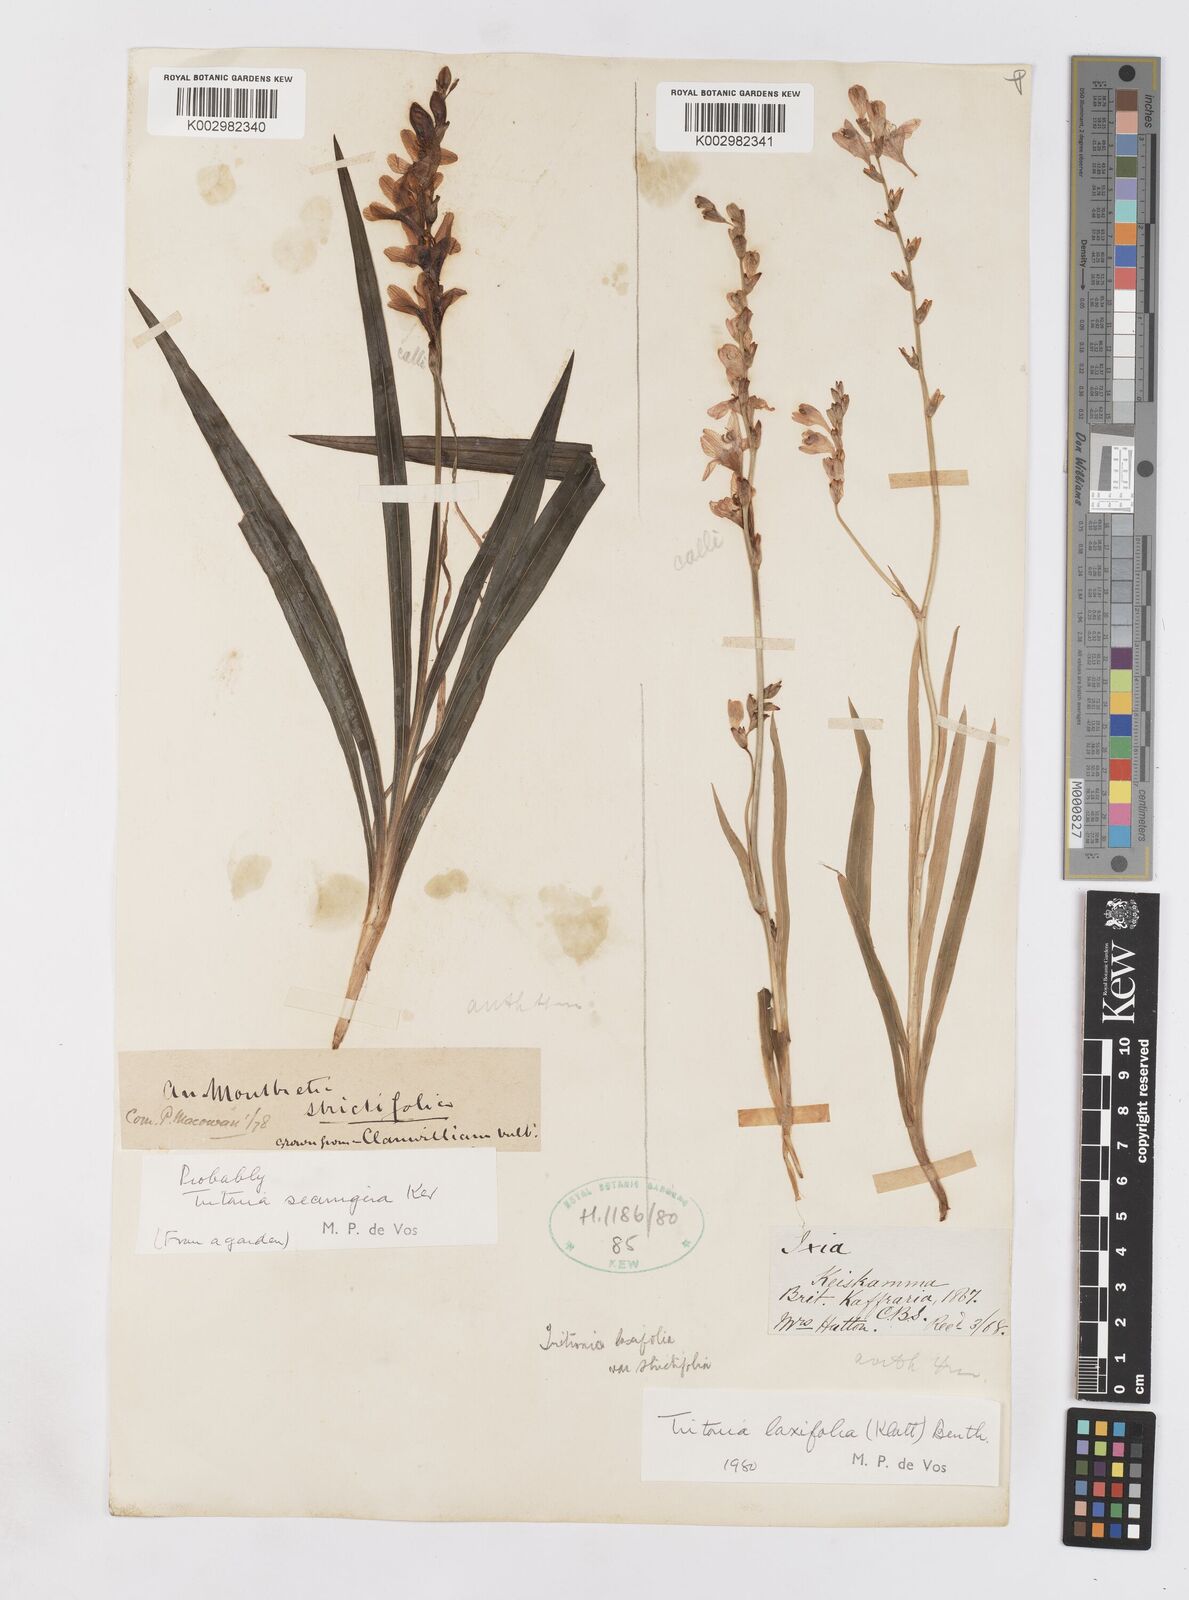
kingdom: Plantae
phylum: Tracheophyta
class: Liliopsida
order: Asparagales
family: Iridaceae
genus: Tritonia
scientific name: Tritonia laxifolia
